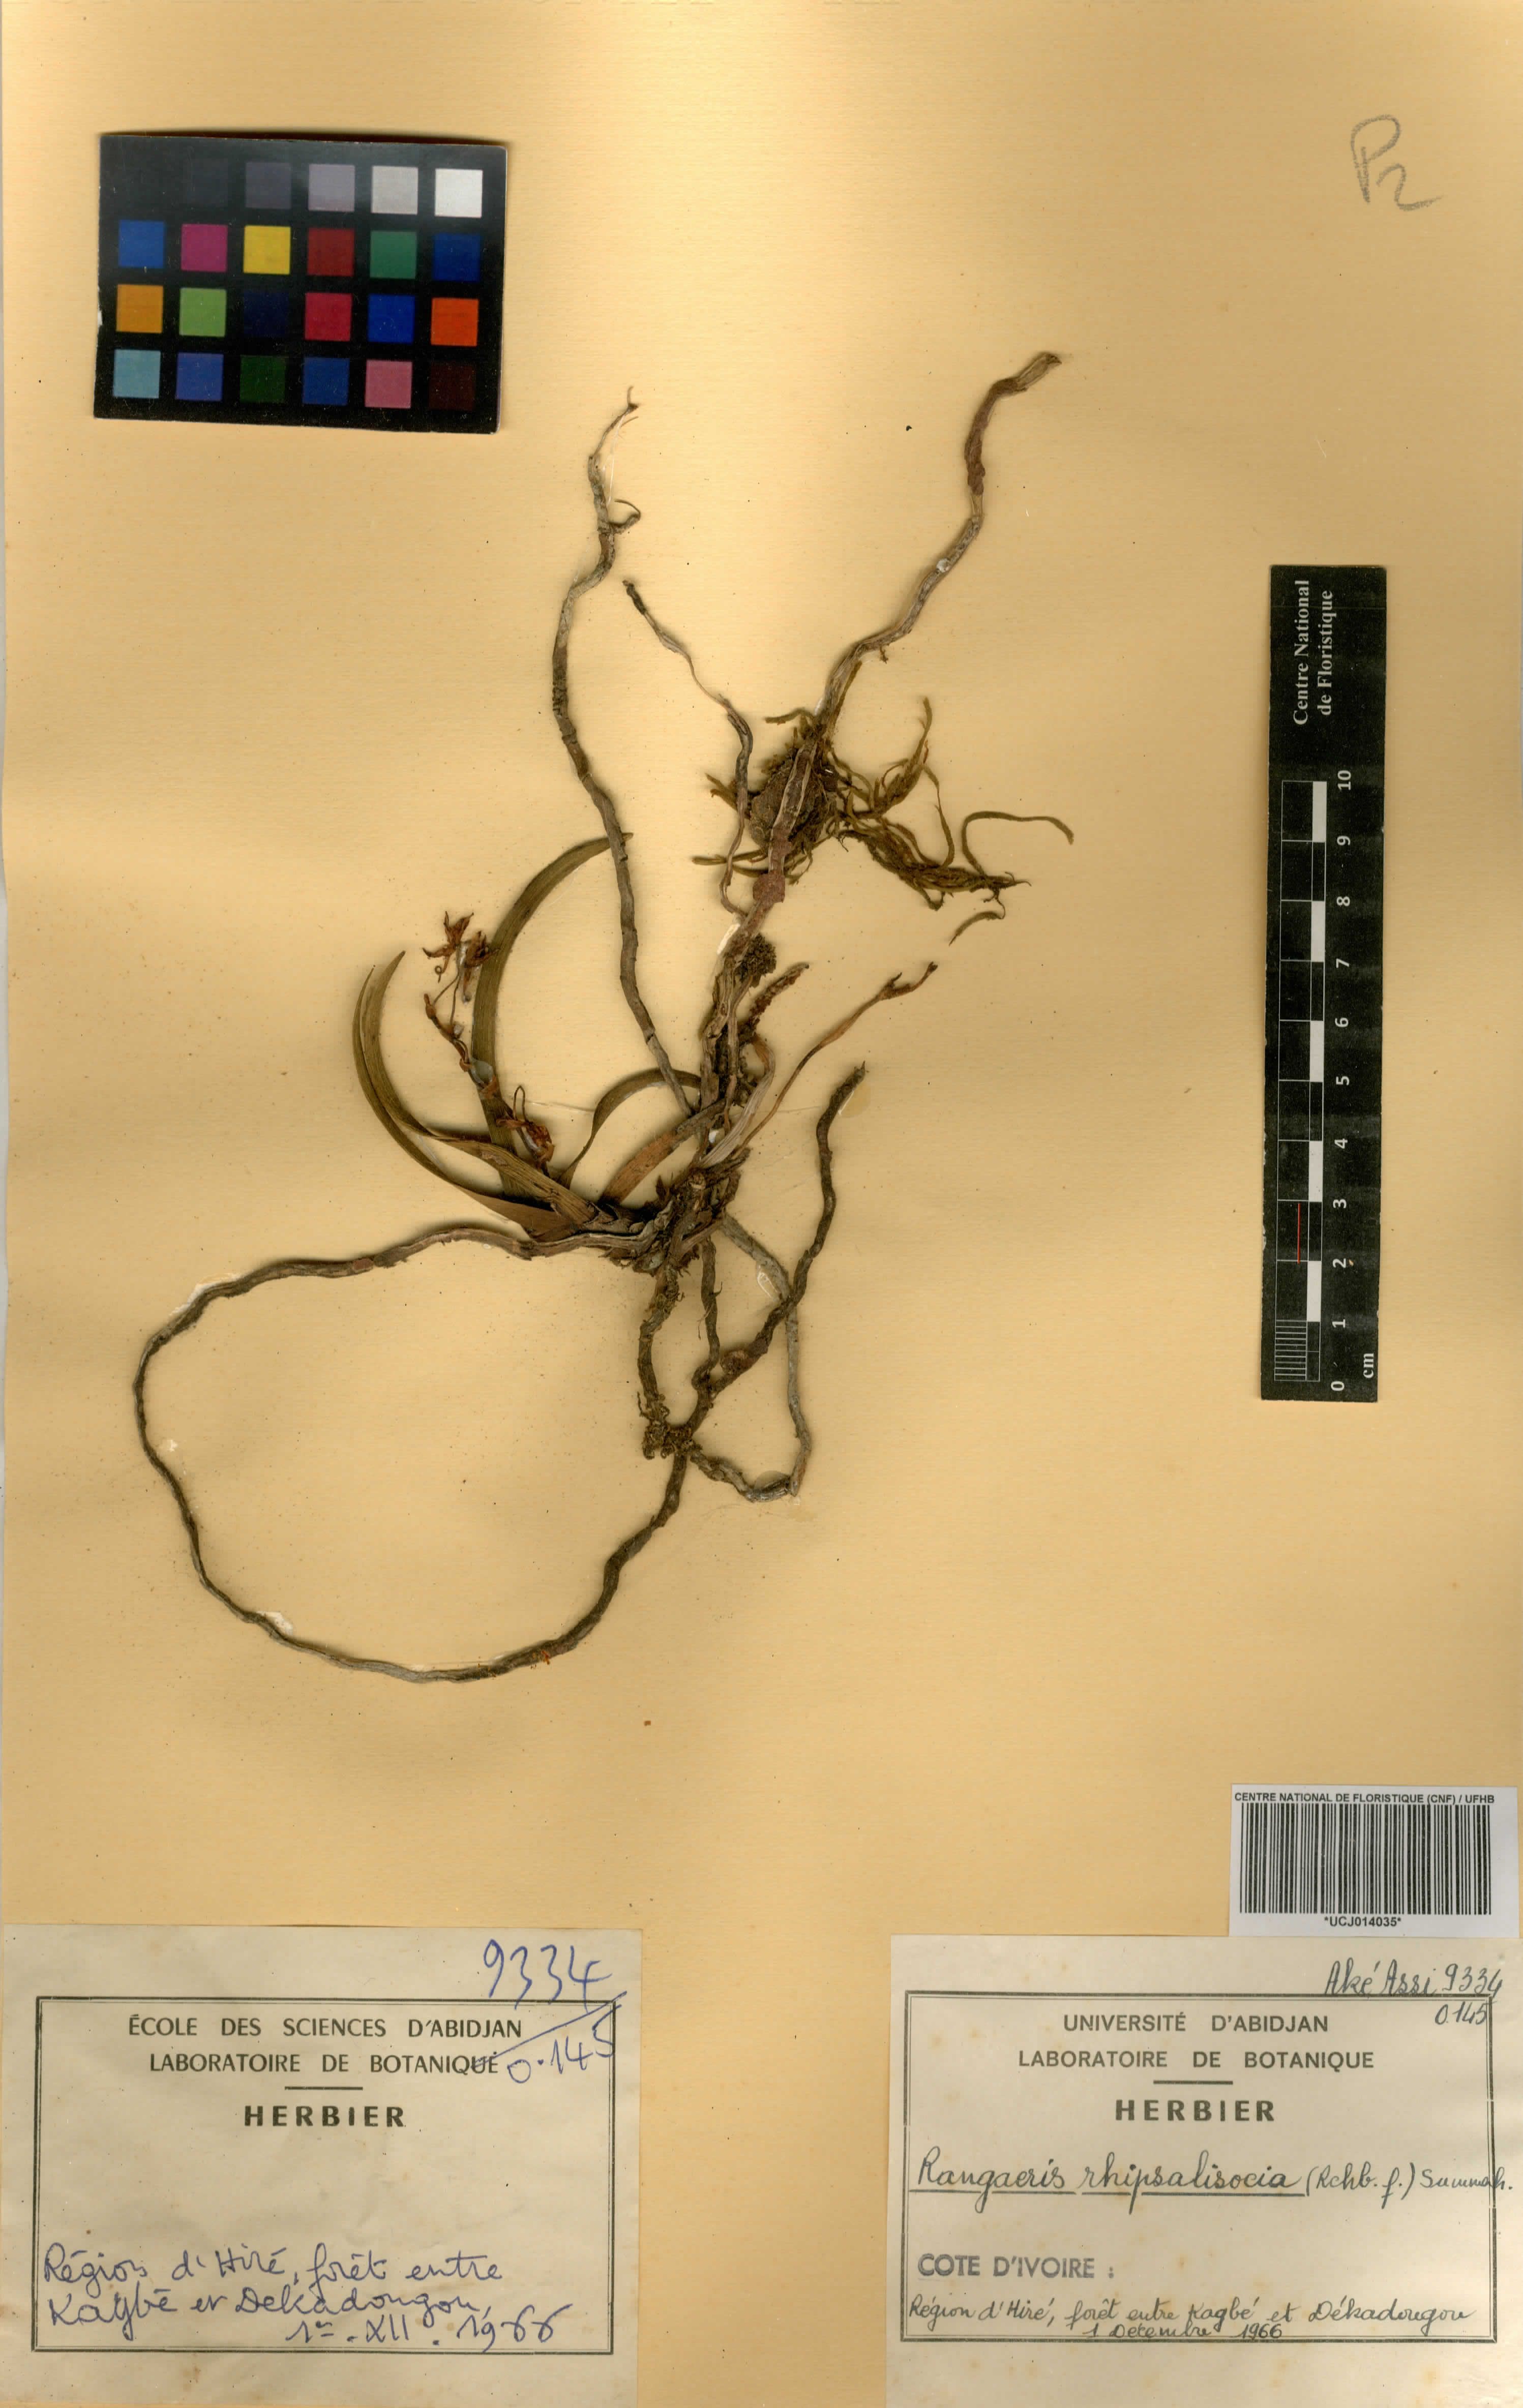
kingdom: Plantae
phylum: Tracheophyta
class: Liliopsida
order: Asparagales
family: Orchidaceae
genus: Podangis
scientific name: Podangis rhipsalisocia
